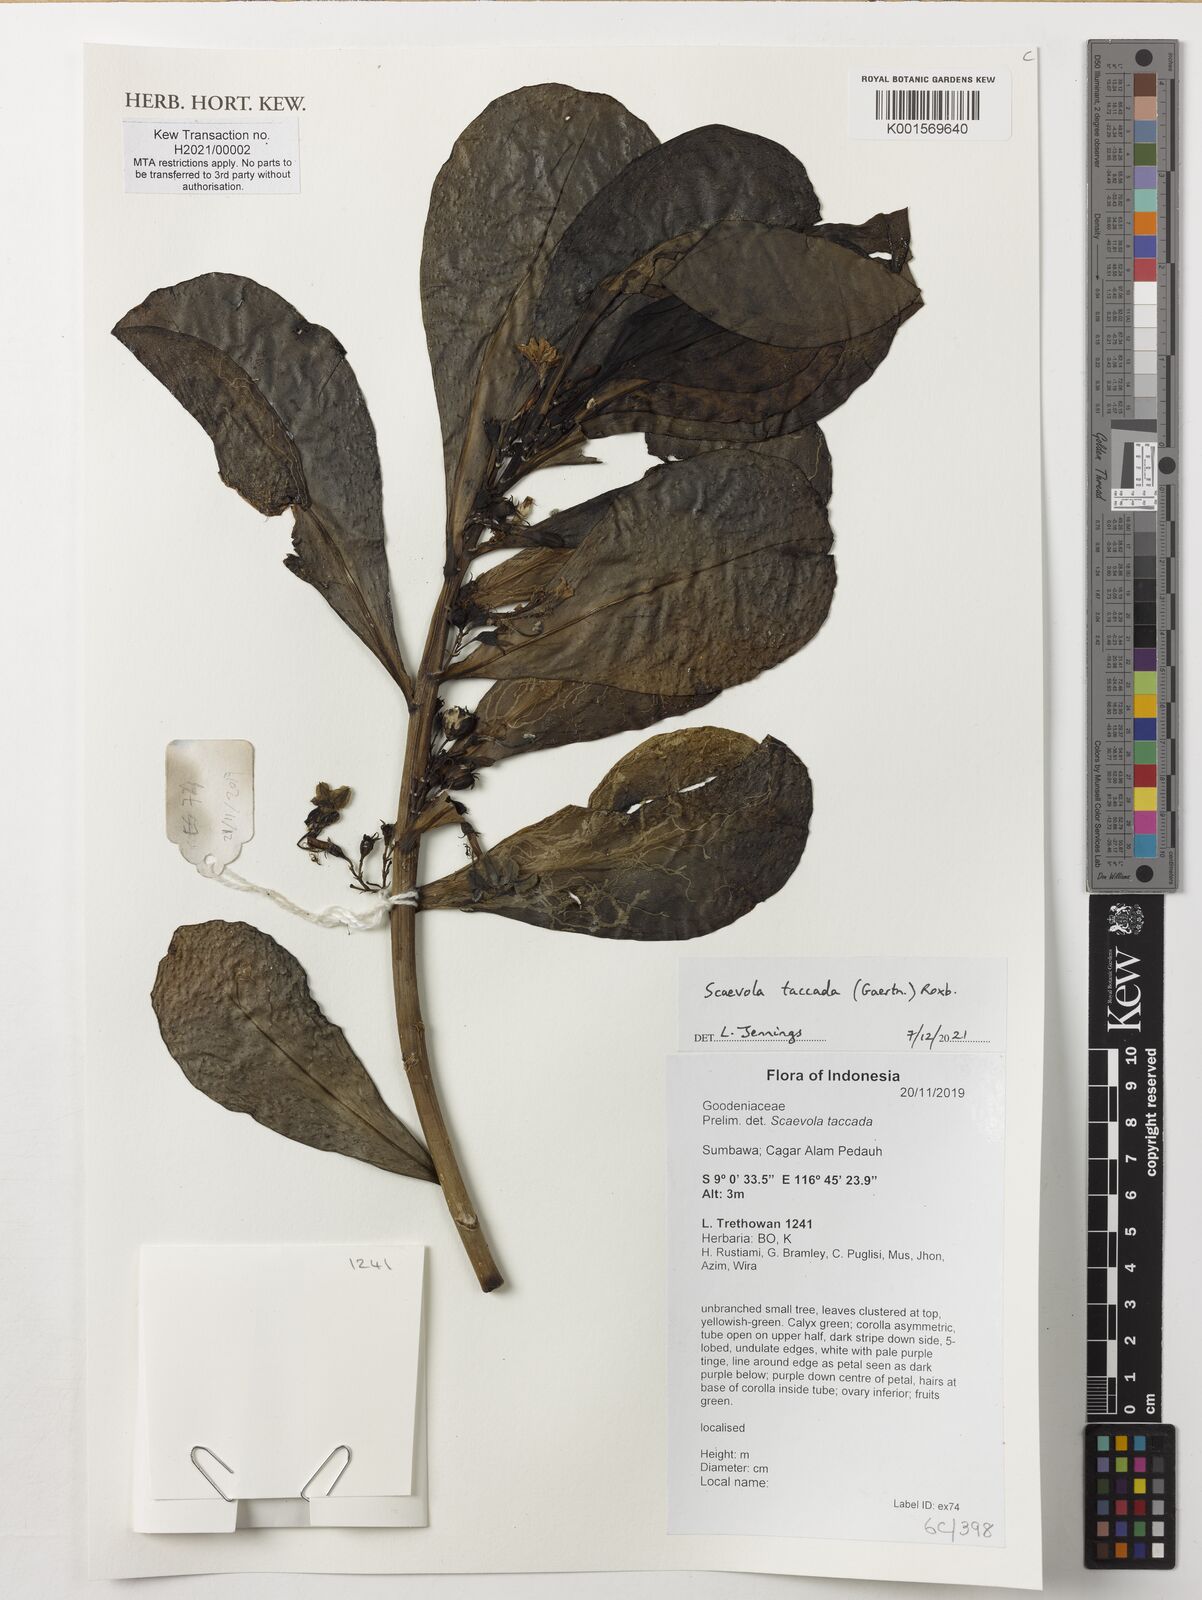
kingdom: Plantae
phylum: Tracheophyta
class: Magnoliopsida
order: Asterales
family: Goodeniaceae
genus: Scaevola
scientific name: Scaevola taccada
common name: Sea lettucetree
